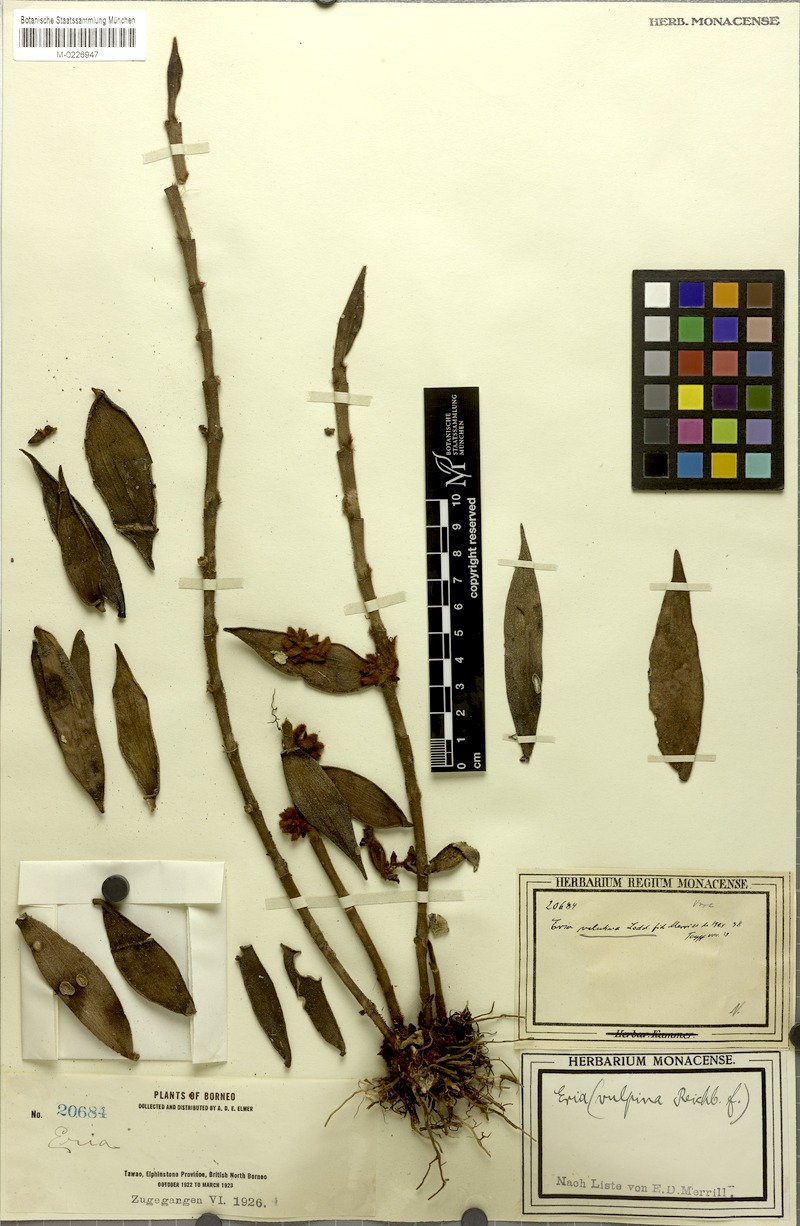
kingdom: Plantae
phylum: Tracheophyta
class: Liliopsida
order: Asparagales
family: Orchidaceae
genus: Trichotosia
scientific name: Trichotosia velutina
